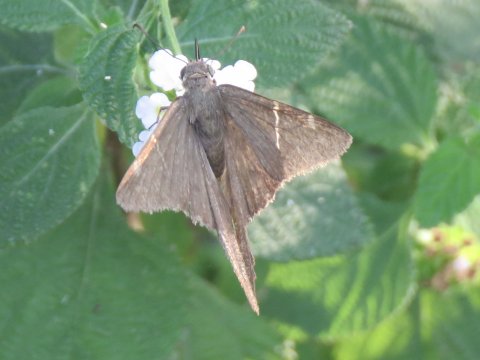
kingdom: Animalia
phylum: Arthropoda
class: Insecta
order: Lepidoptera
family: Hesperiidae
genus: Urbanus
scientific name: Urbanus procne
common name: Brown Longtail
